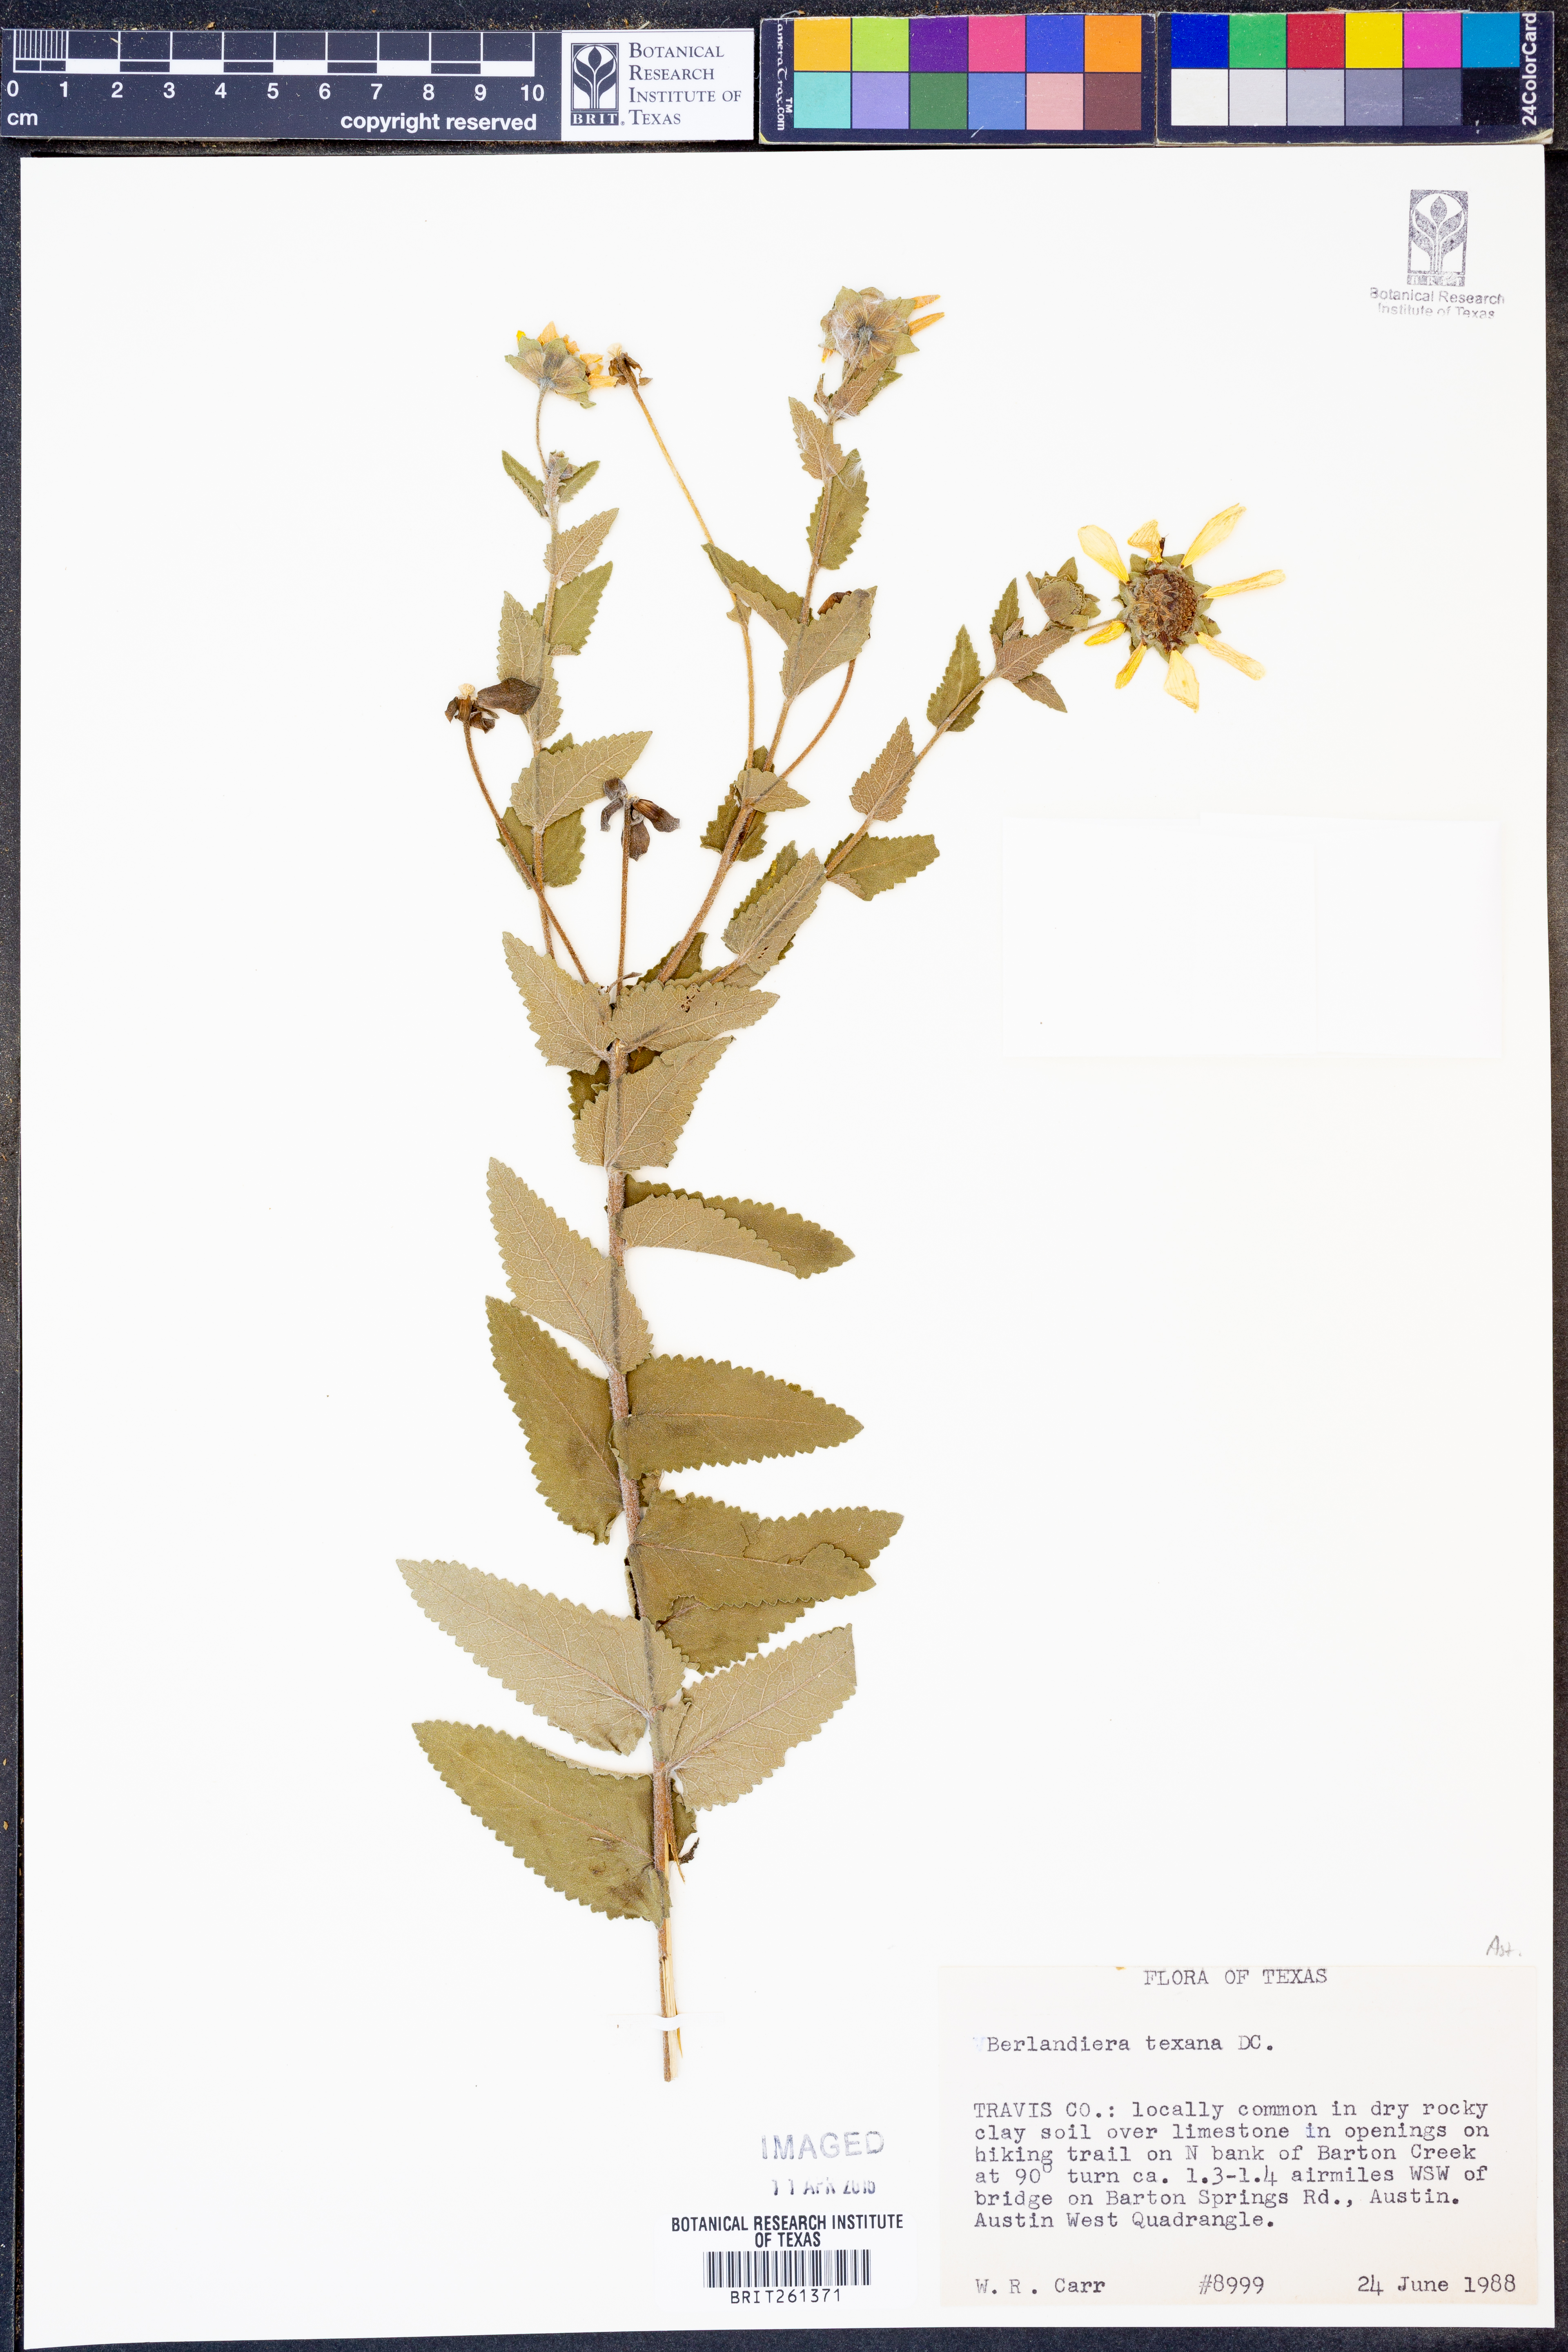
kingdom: Plantae
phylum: Tracheophyta
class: Magnoliopsida
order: Asterales
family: Asteraceae
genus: Berlandiera
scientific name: Berlandiera texana
